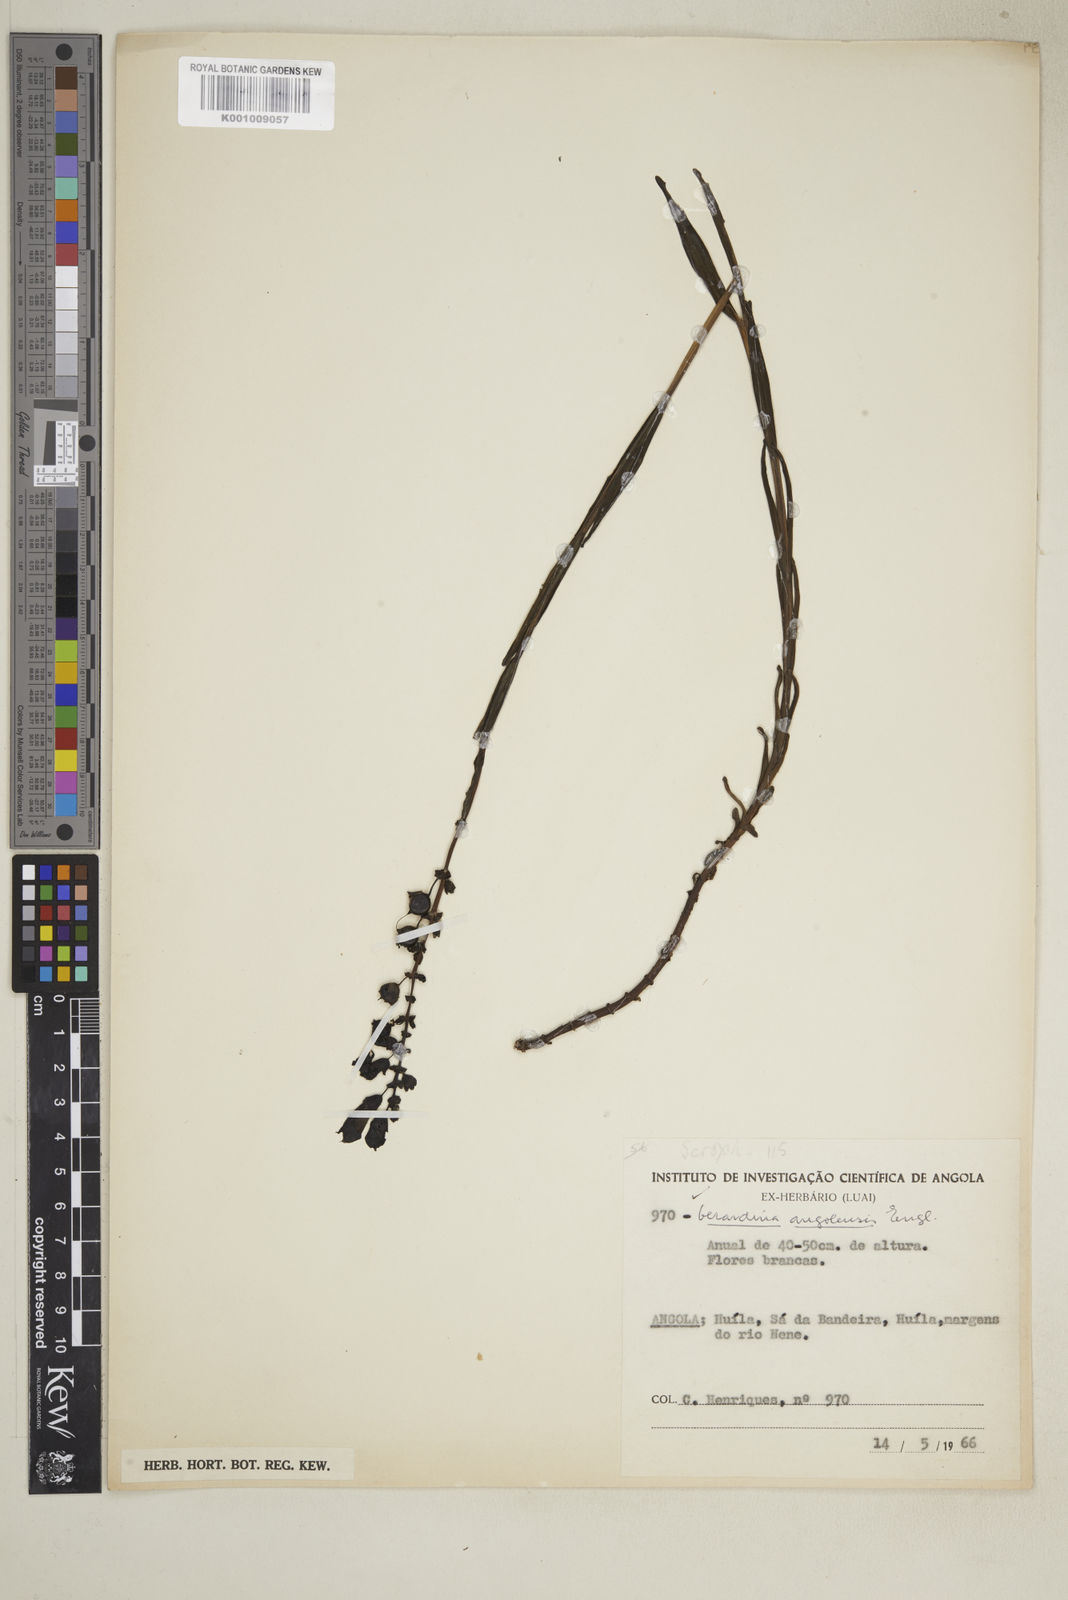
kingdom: Plantae
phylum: Tracheophyta
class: Magnoliopsida
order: Lamiales
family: Orobanchaceae
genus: Gerardiina
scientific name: Gerardiina angolensis
